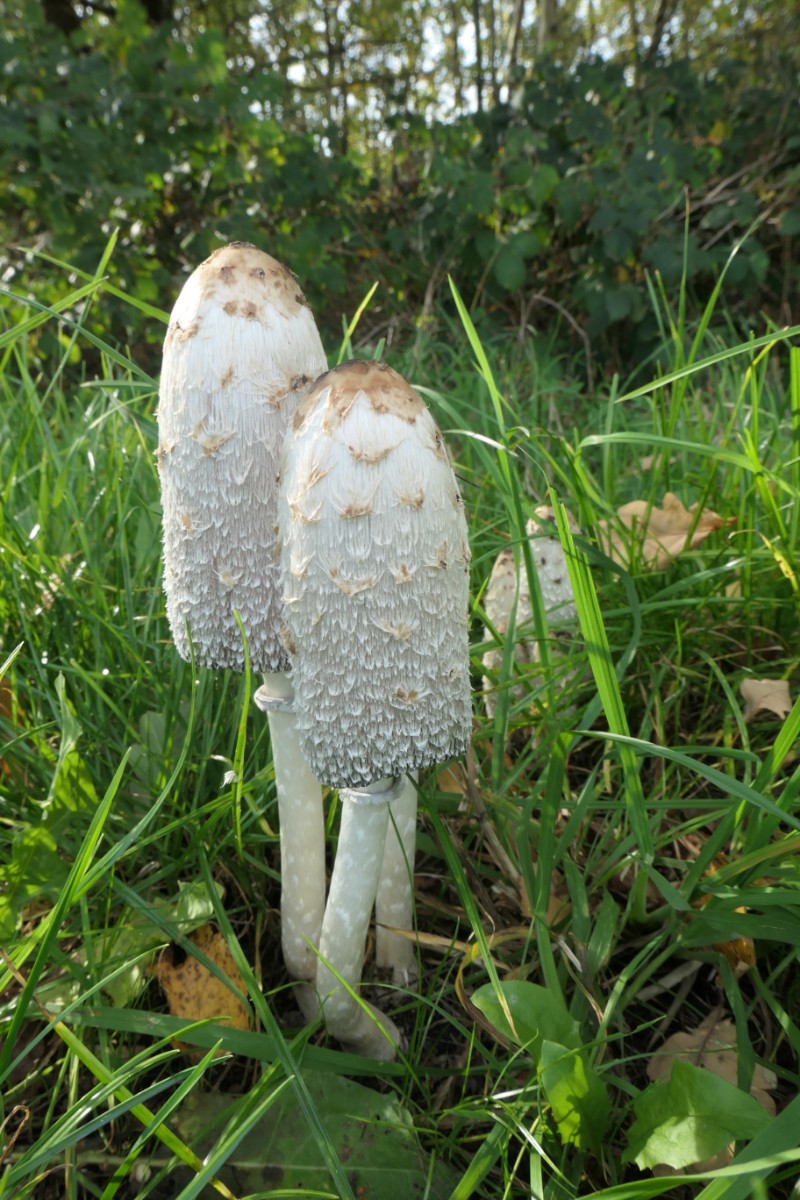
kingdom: Fungi
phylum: Basidiomycota
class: Agaricomycetes
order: Agaricales
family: Agaricaceae
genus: Coprinus
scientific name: Coprinus comatus
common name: stor parykhat
